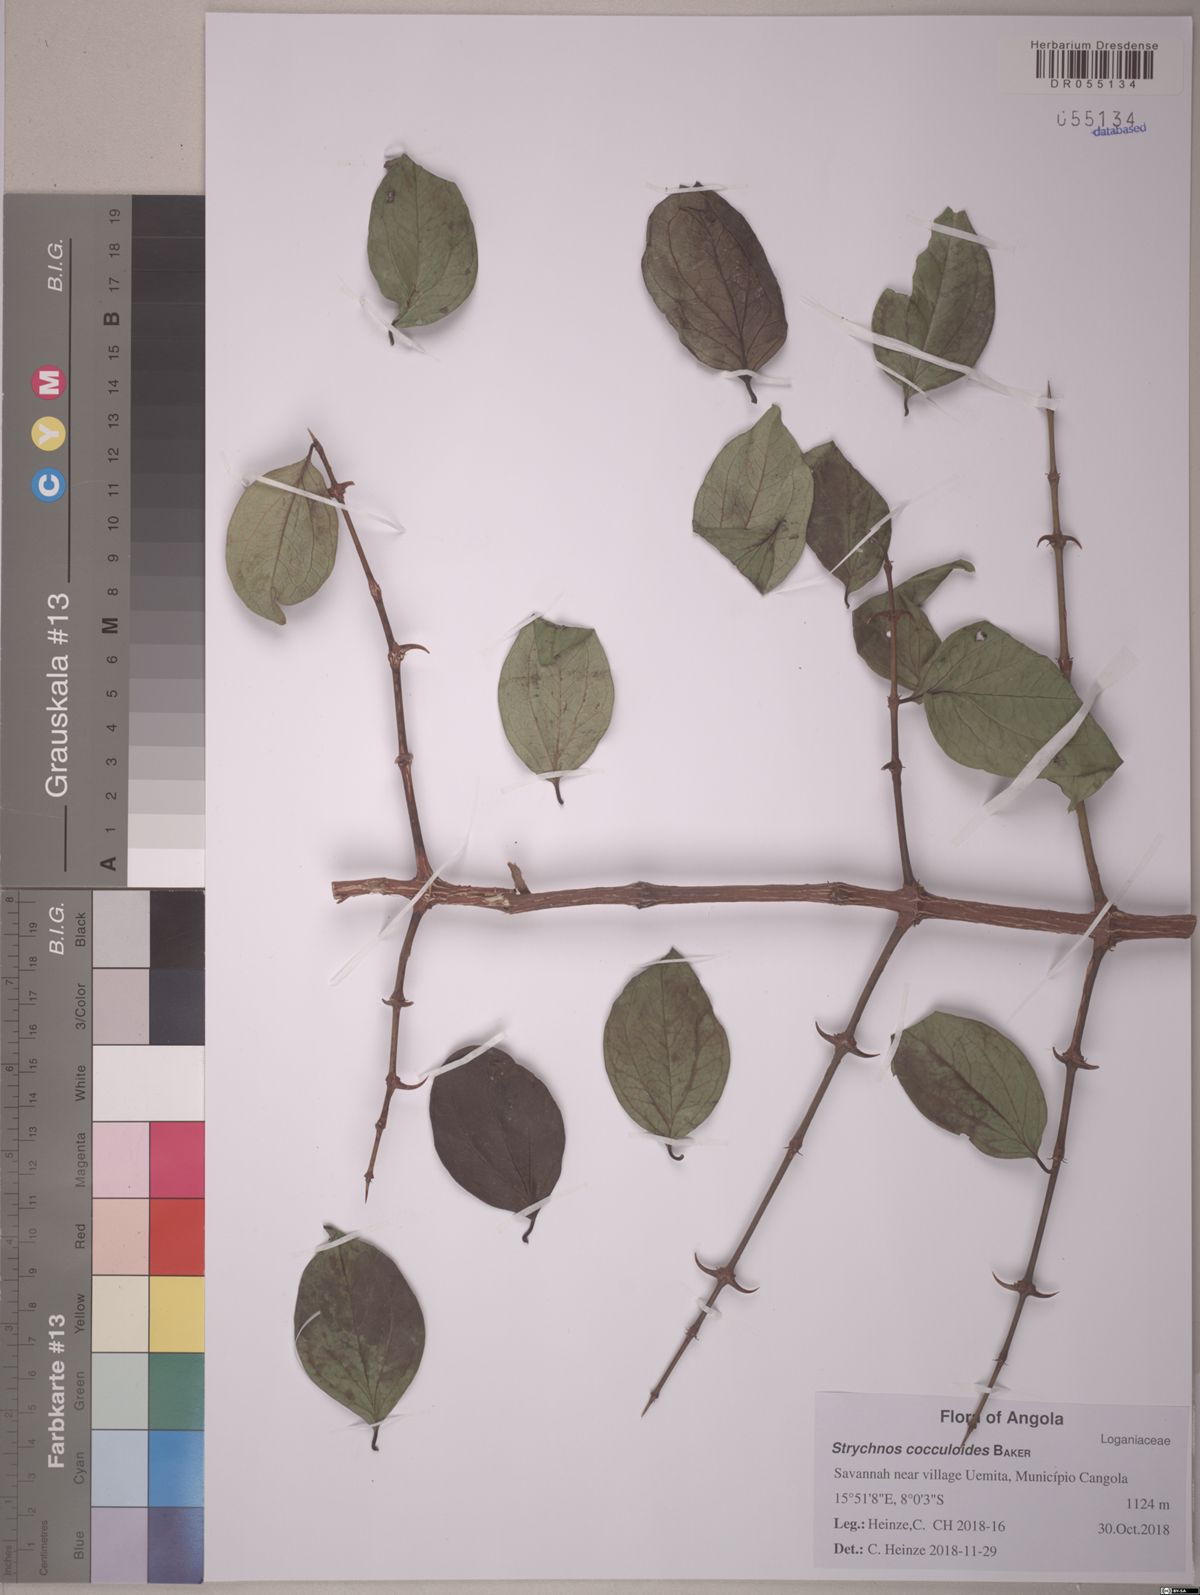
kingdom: Plantae
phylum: Tracheophyta
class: Magnoliopsida
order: Gentianales
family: Loganiaceae
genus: Strychnos
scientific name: Strychnos cocculoides
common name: Corky-bark monkey-orange
